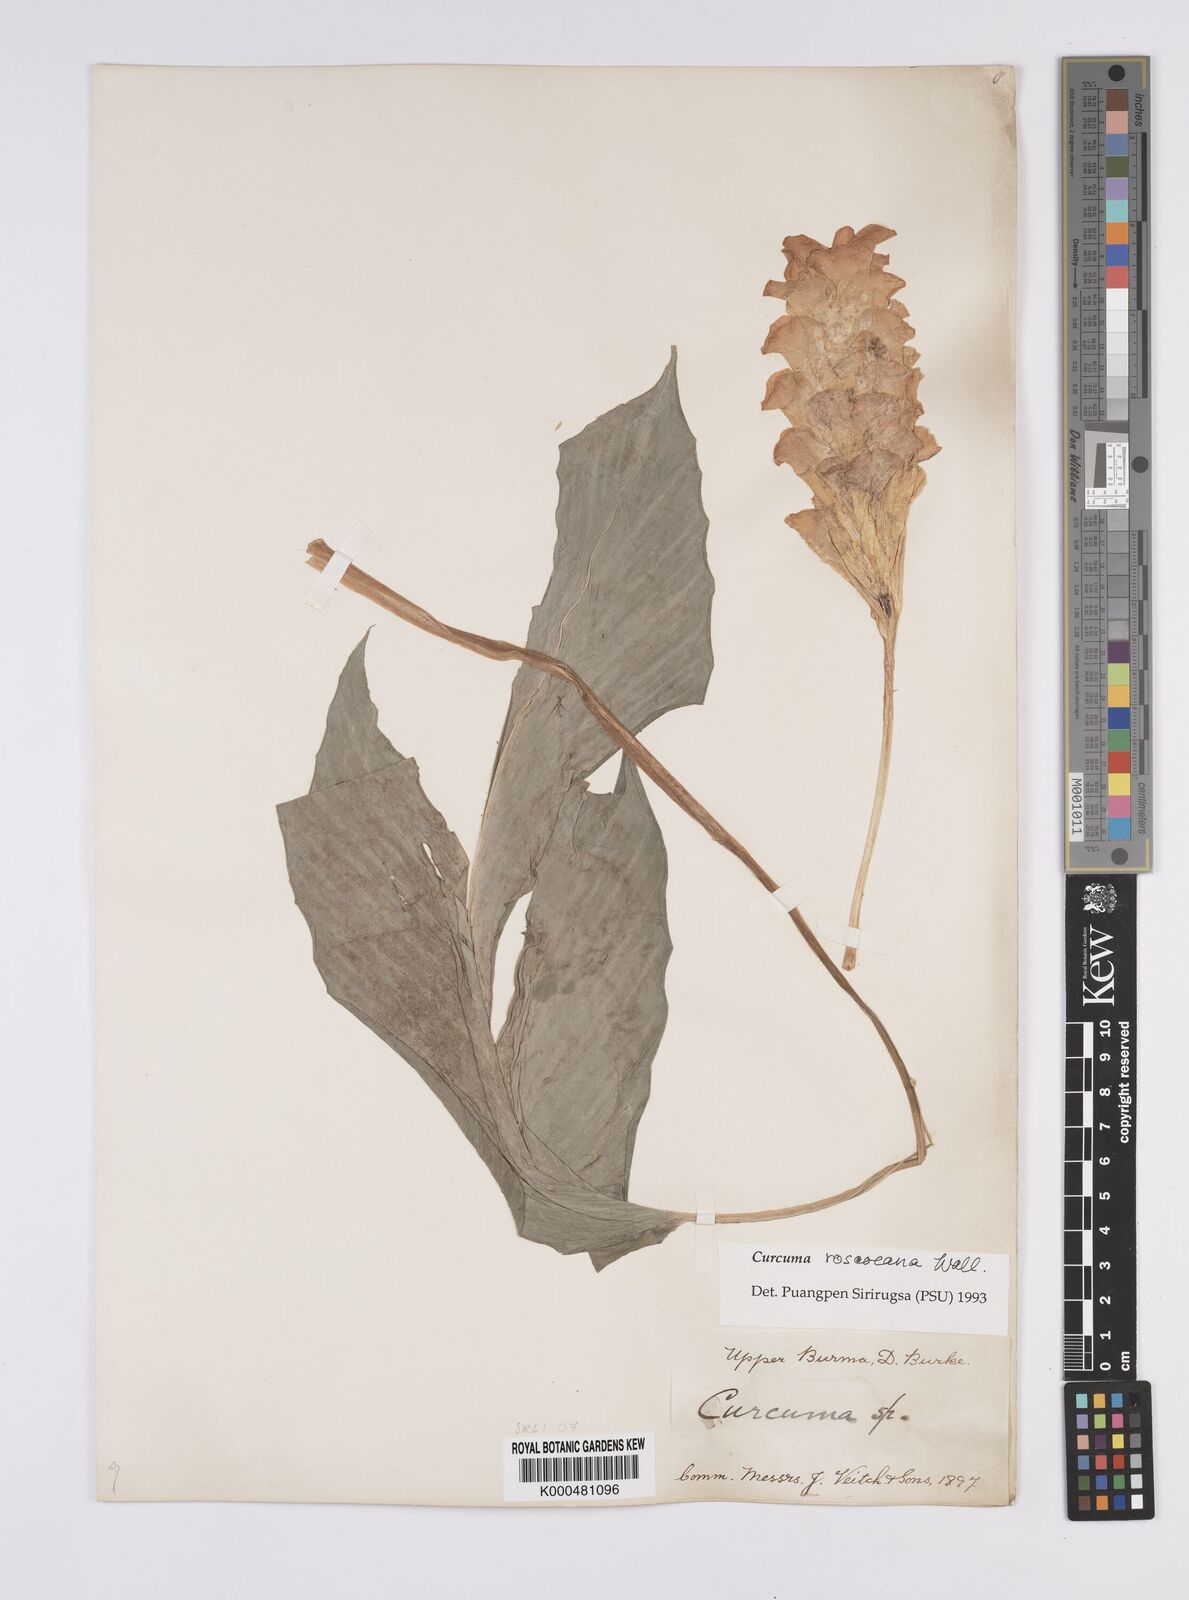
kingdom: Plantae
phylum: Tracheophyta
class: Liliopsida
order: Zingiberales
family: Zingiberaceae
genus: Curcuma
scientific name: Curcuma roscoeana
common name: Jewel of burma
